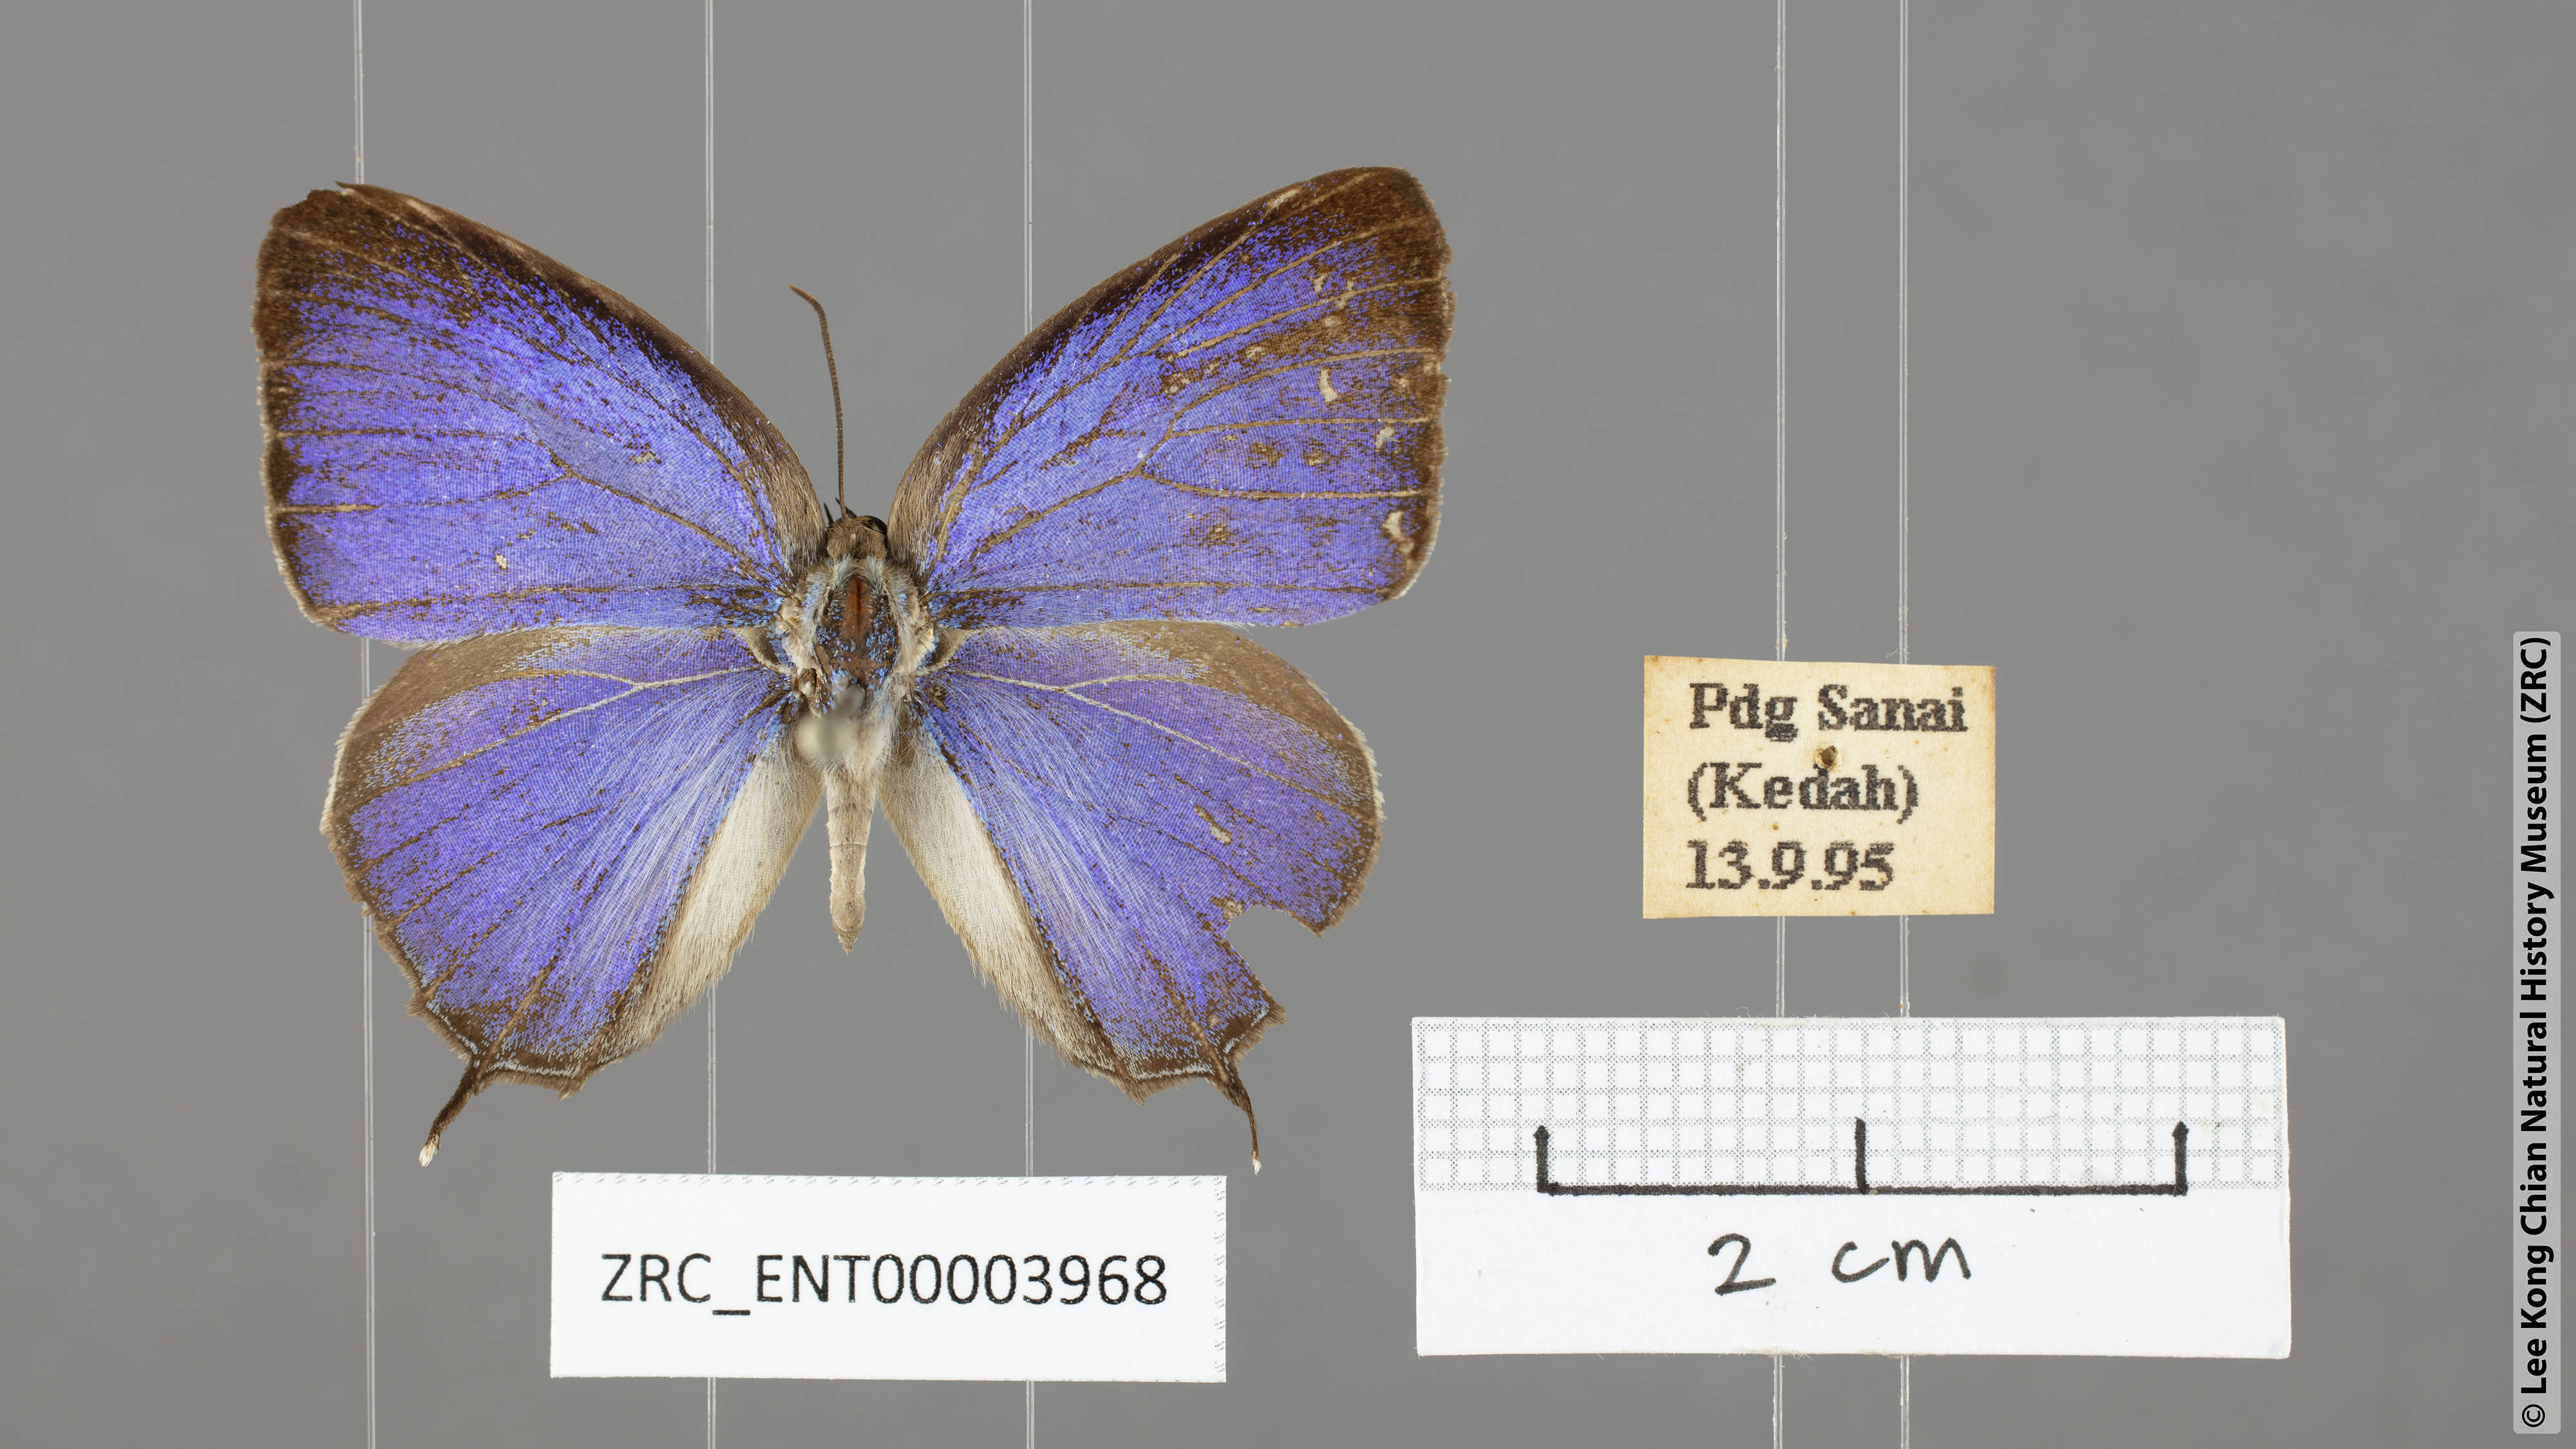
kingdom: Animalia
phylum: Arthropoda
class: Insecta
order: Lepidoptera
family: Lycaenidae
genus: Arhopala
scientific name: Arhopala ijauensis
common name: White-banded oakblue
